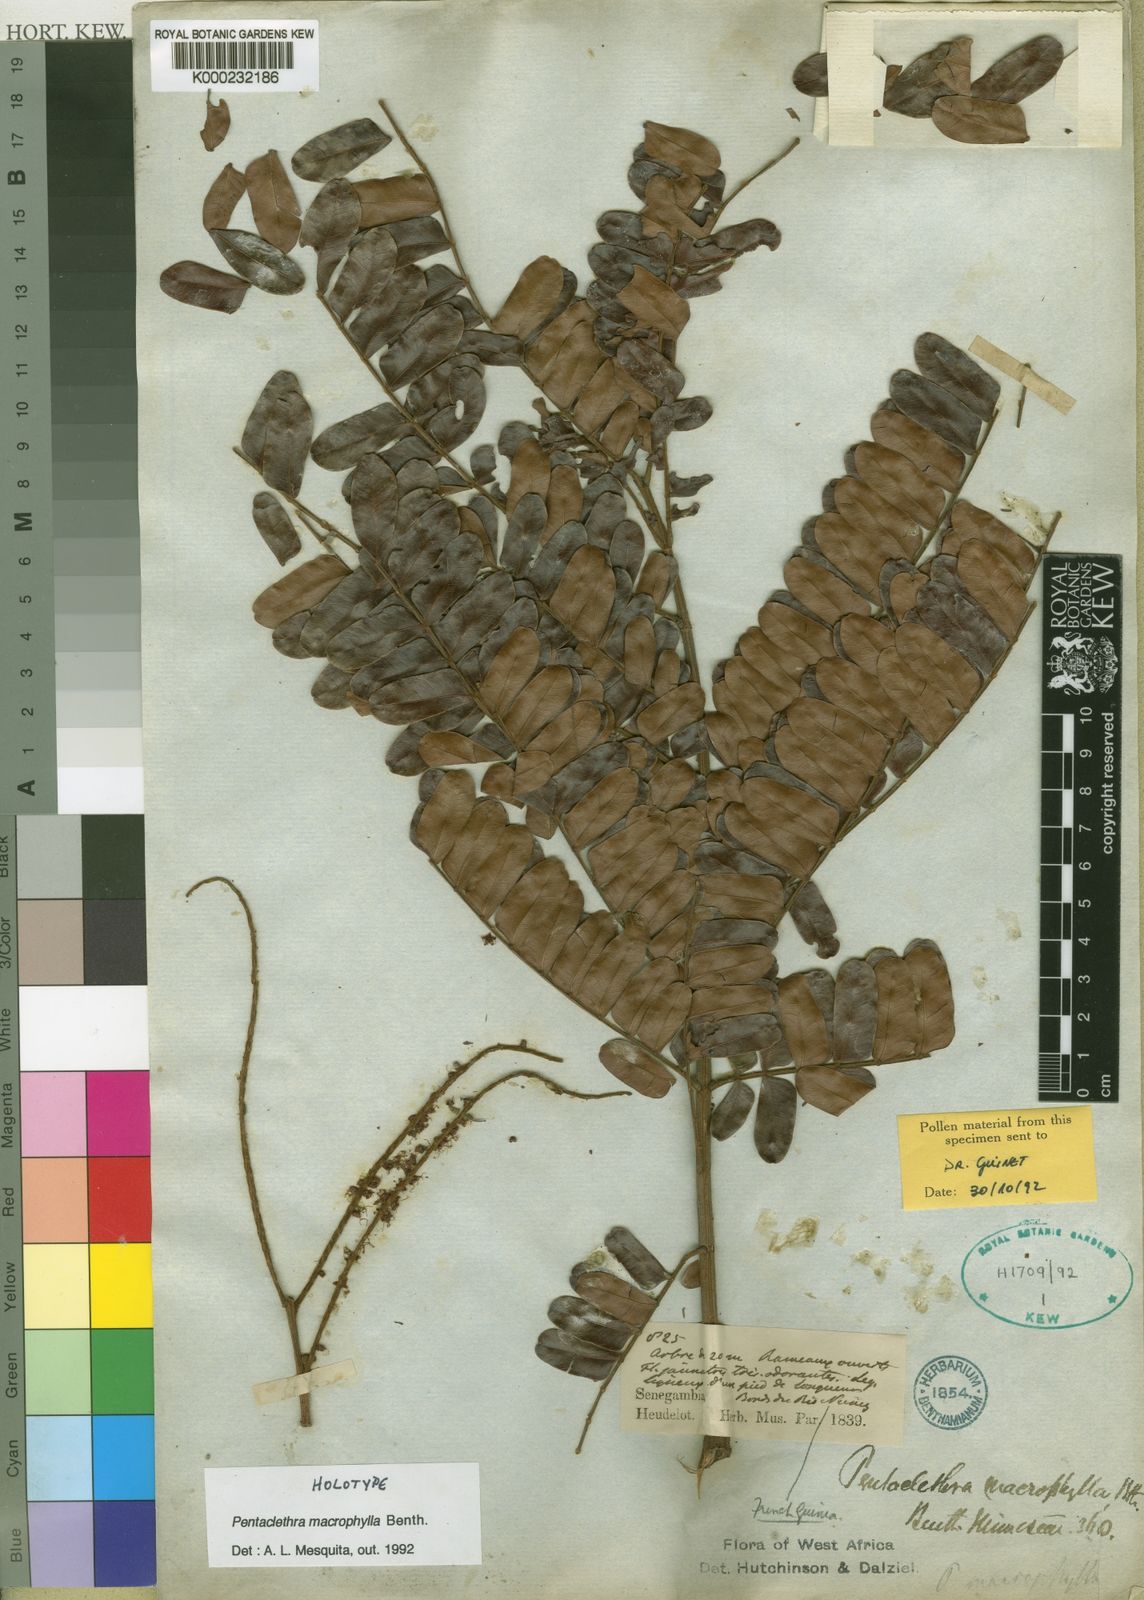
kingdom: Plantae
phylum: Tracheophyta
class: Magnoliopsida
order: Fabales
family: Fabaceae
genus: Pentaclethra
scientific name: Pentaclethra macrophylla
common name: African oil bean
